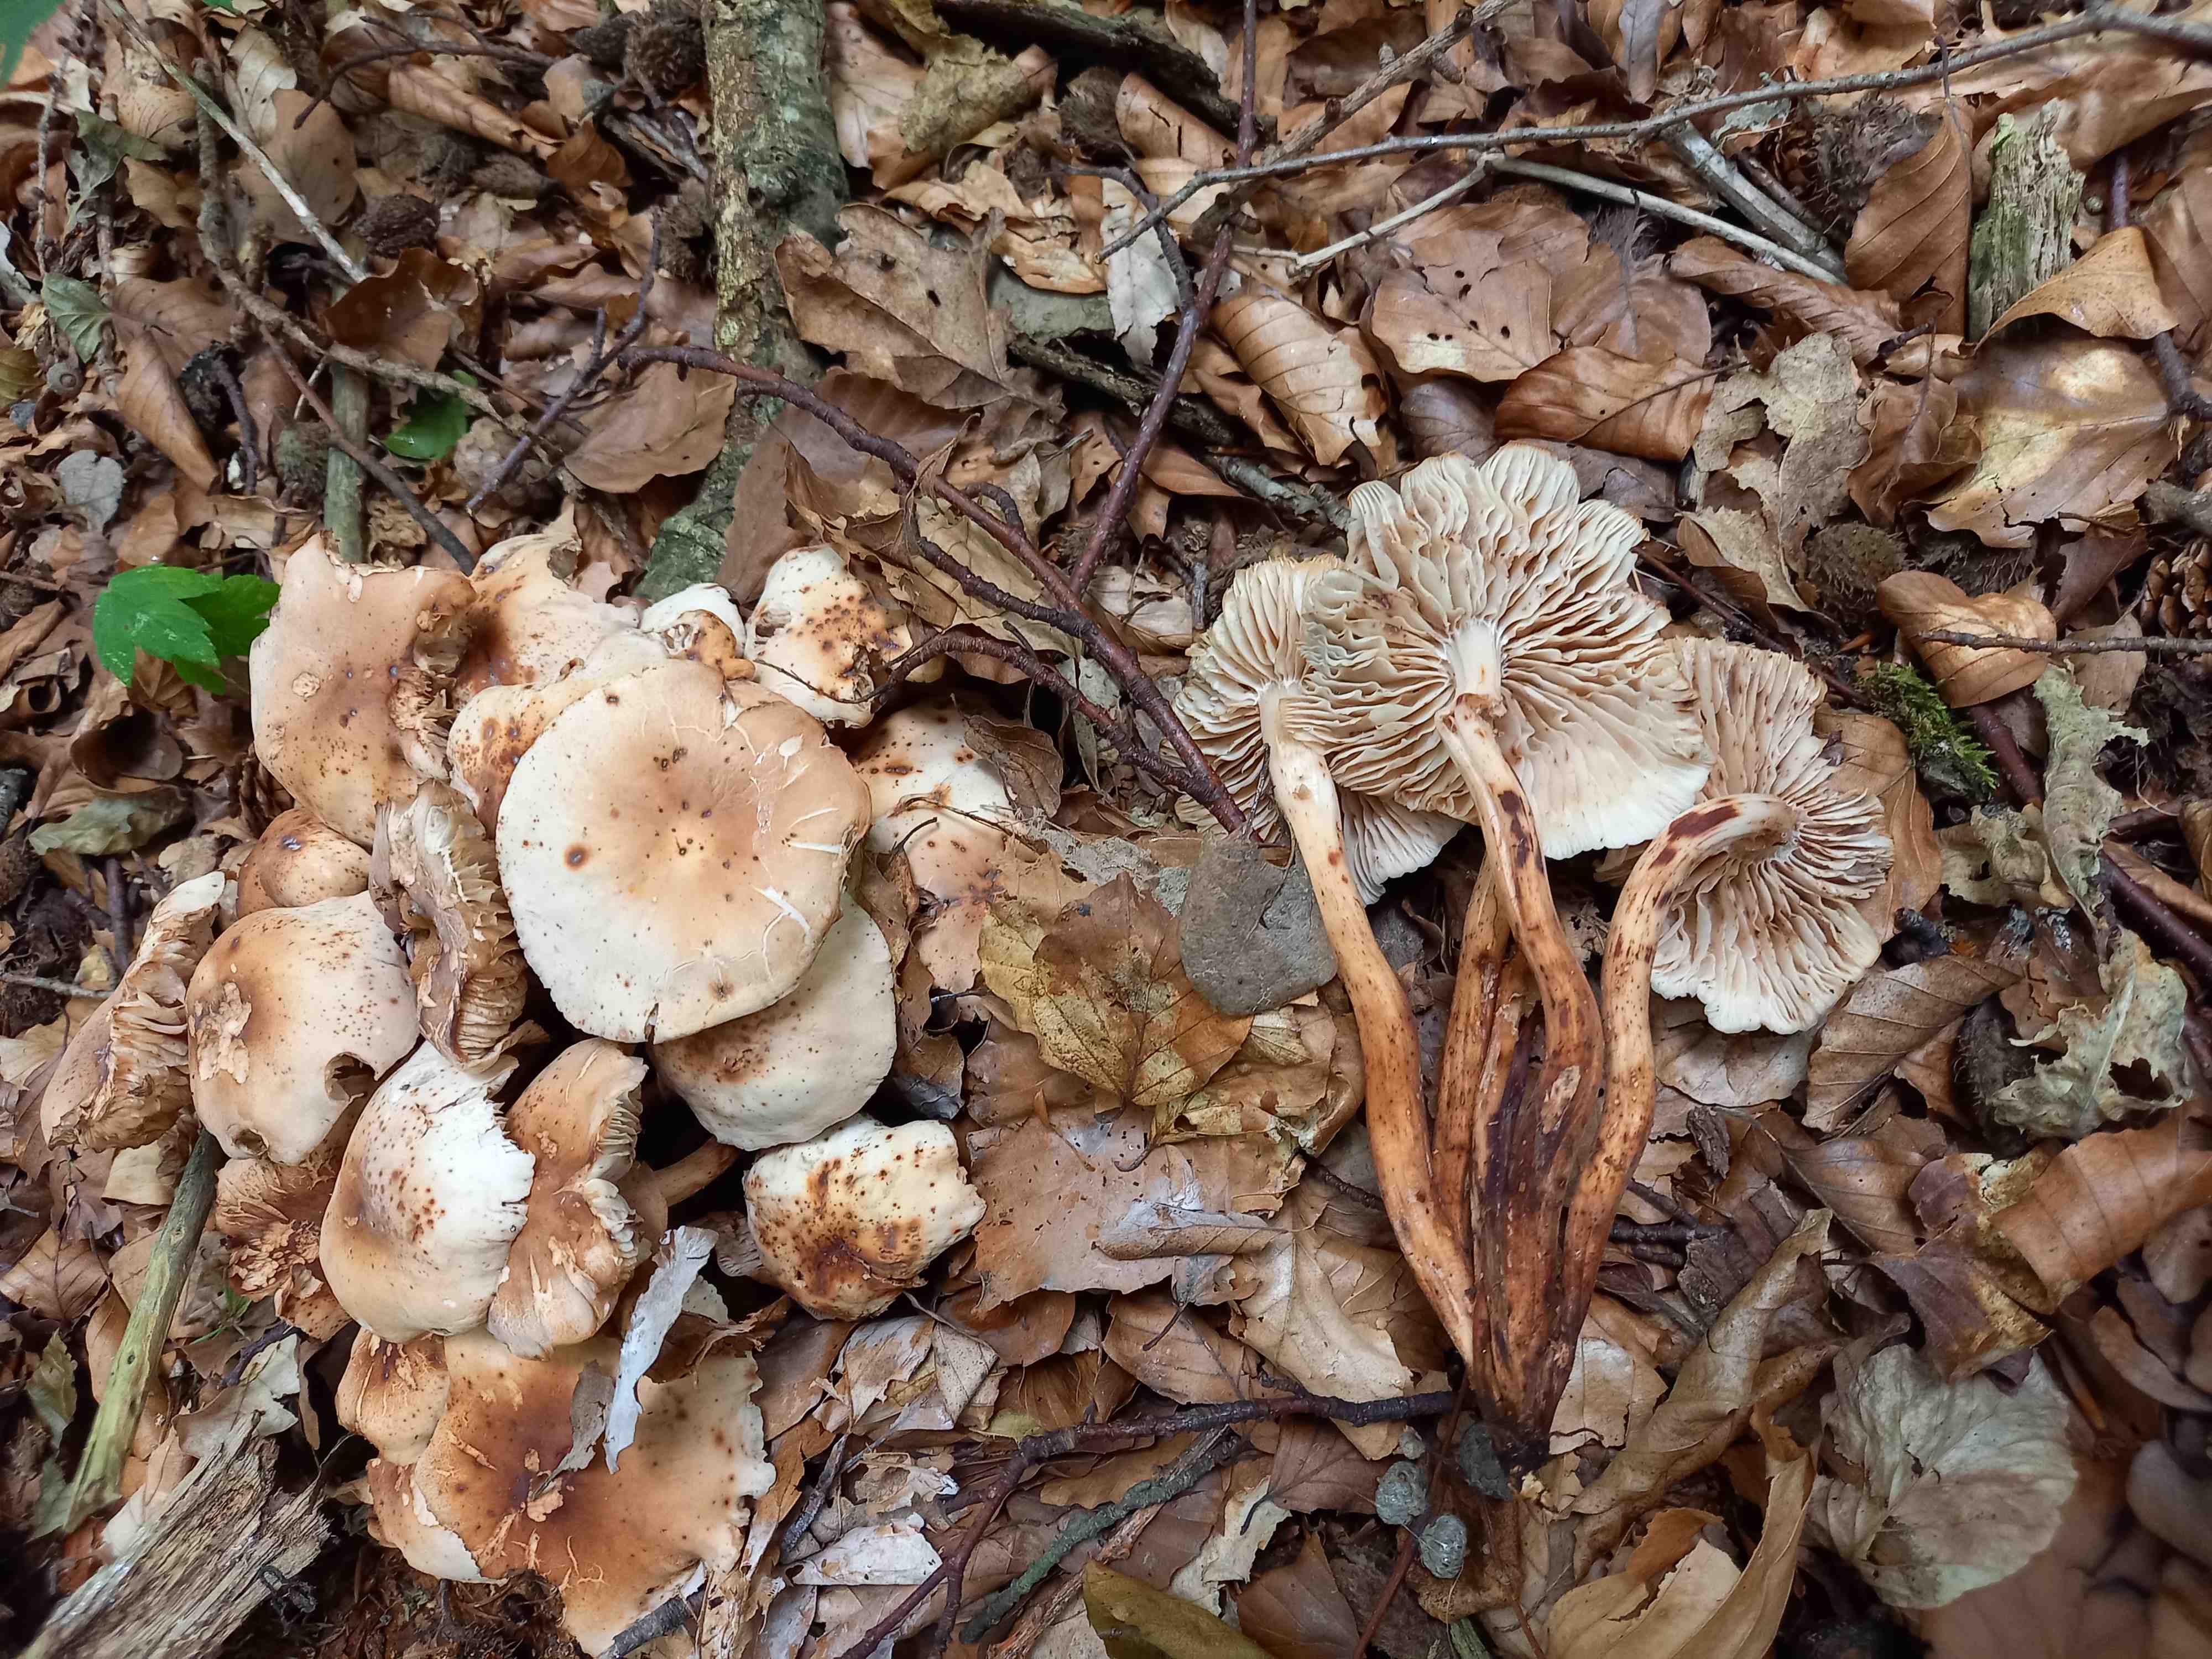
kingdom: Fungi
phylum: Basidiomycota
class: Agaricomycetes
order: Agaricales
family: Omphalotaceae
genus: Gymnopus
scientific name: Gymnopus fusipes
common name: tenstokket fladhat
